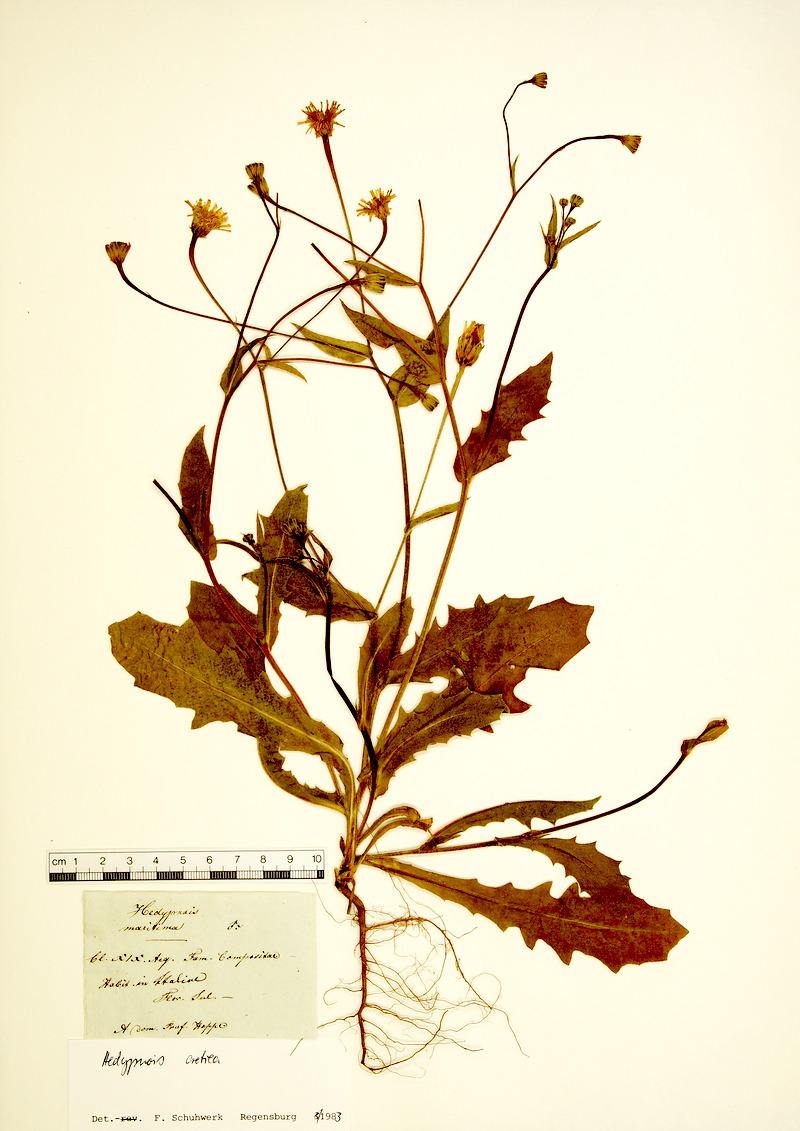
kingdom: Plantae
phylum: Tracheophyta
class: Magnoliopsida
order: Asterales
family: Asteraceae
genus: Hedypnois
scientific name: Hedypnois cretica
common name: Scaly hawkbit
